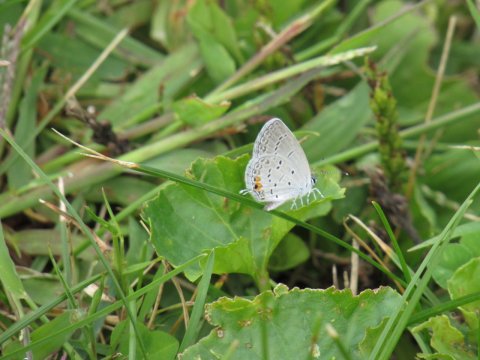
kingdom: Animalia
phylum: Arthropoda
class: Insecta
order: Lepidoptera
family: Lycaenidae
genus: Elkalyce
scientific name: Elkalyce comyntas
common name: Eastern Tailed-Blue
